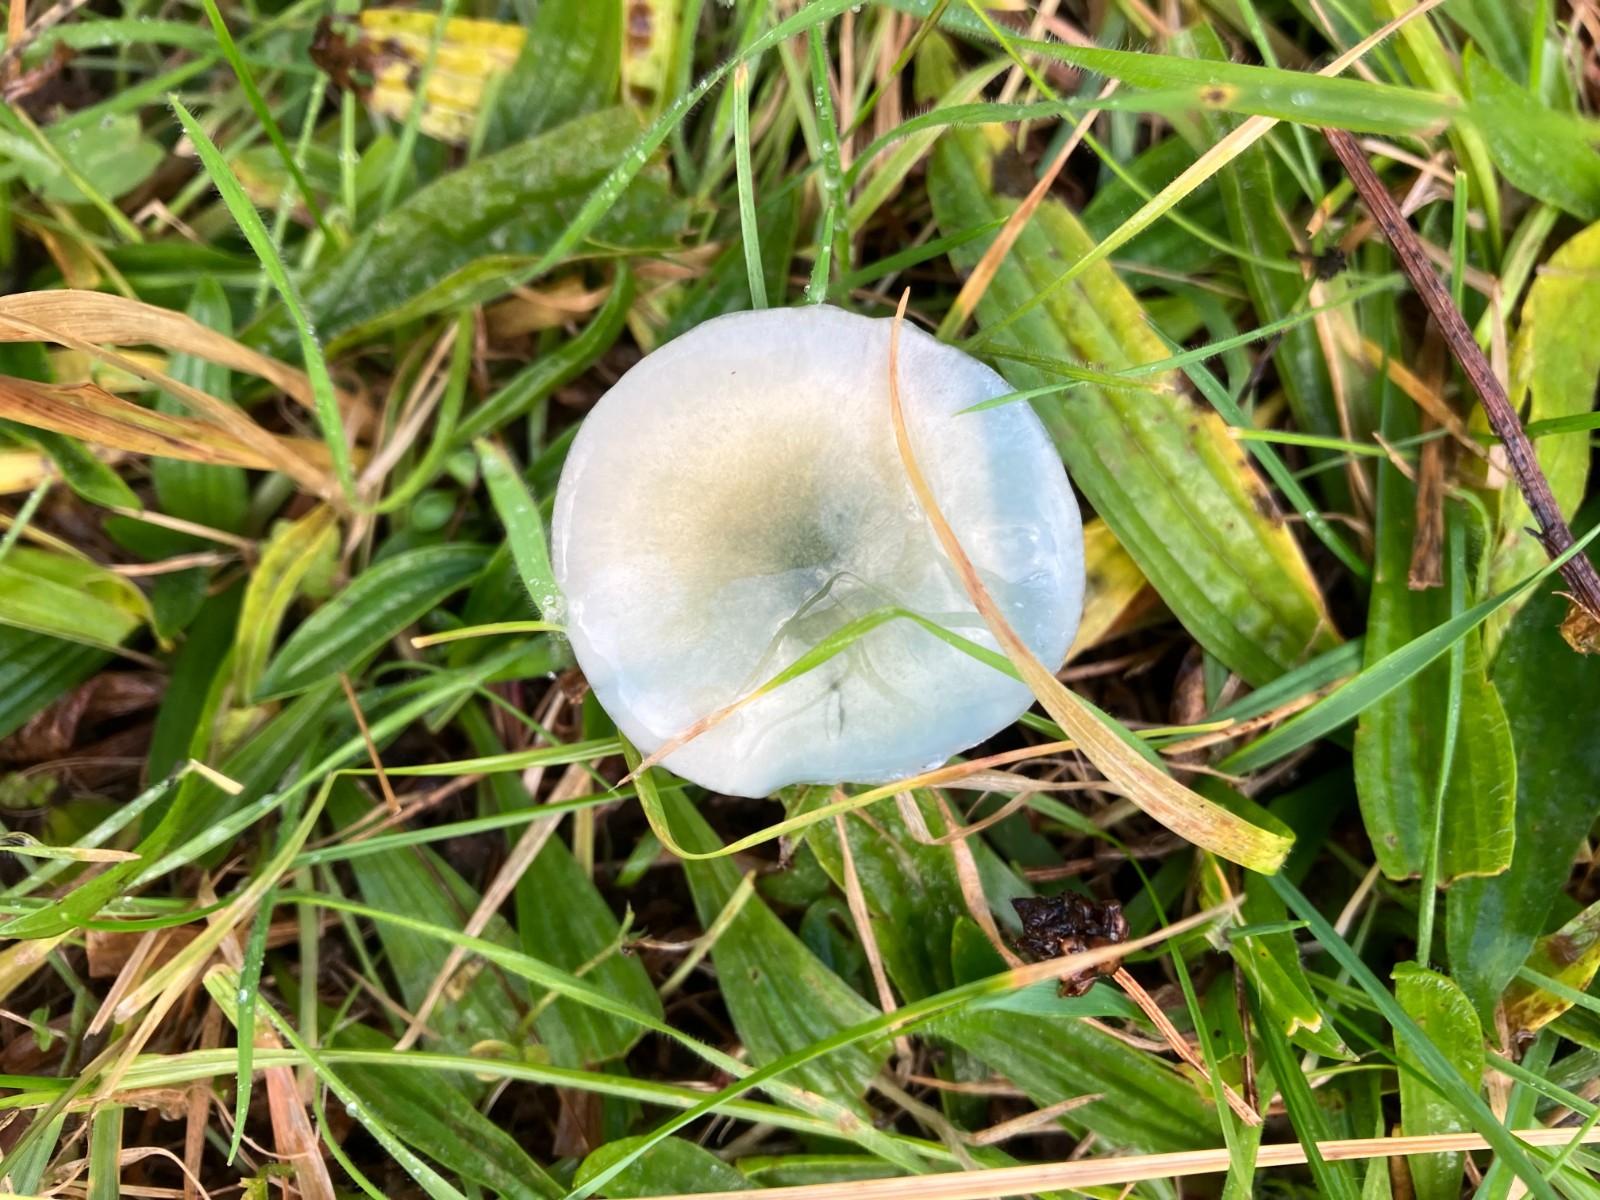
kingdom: Fungi
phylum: Basidiomycota
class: Agaricomycetes
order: Agaricales
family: Strophariaceae
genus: Stropharia
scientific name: Stropharia
